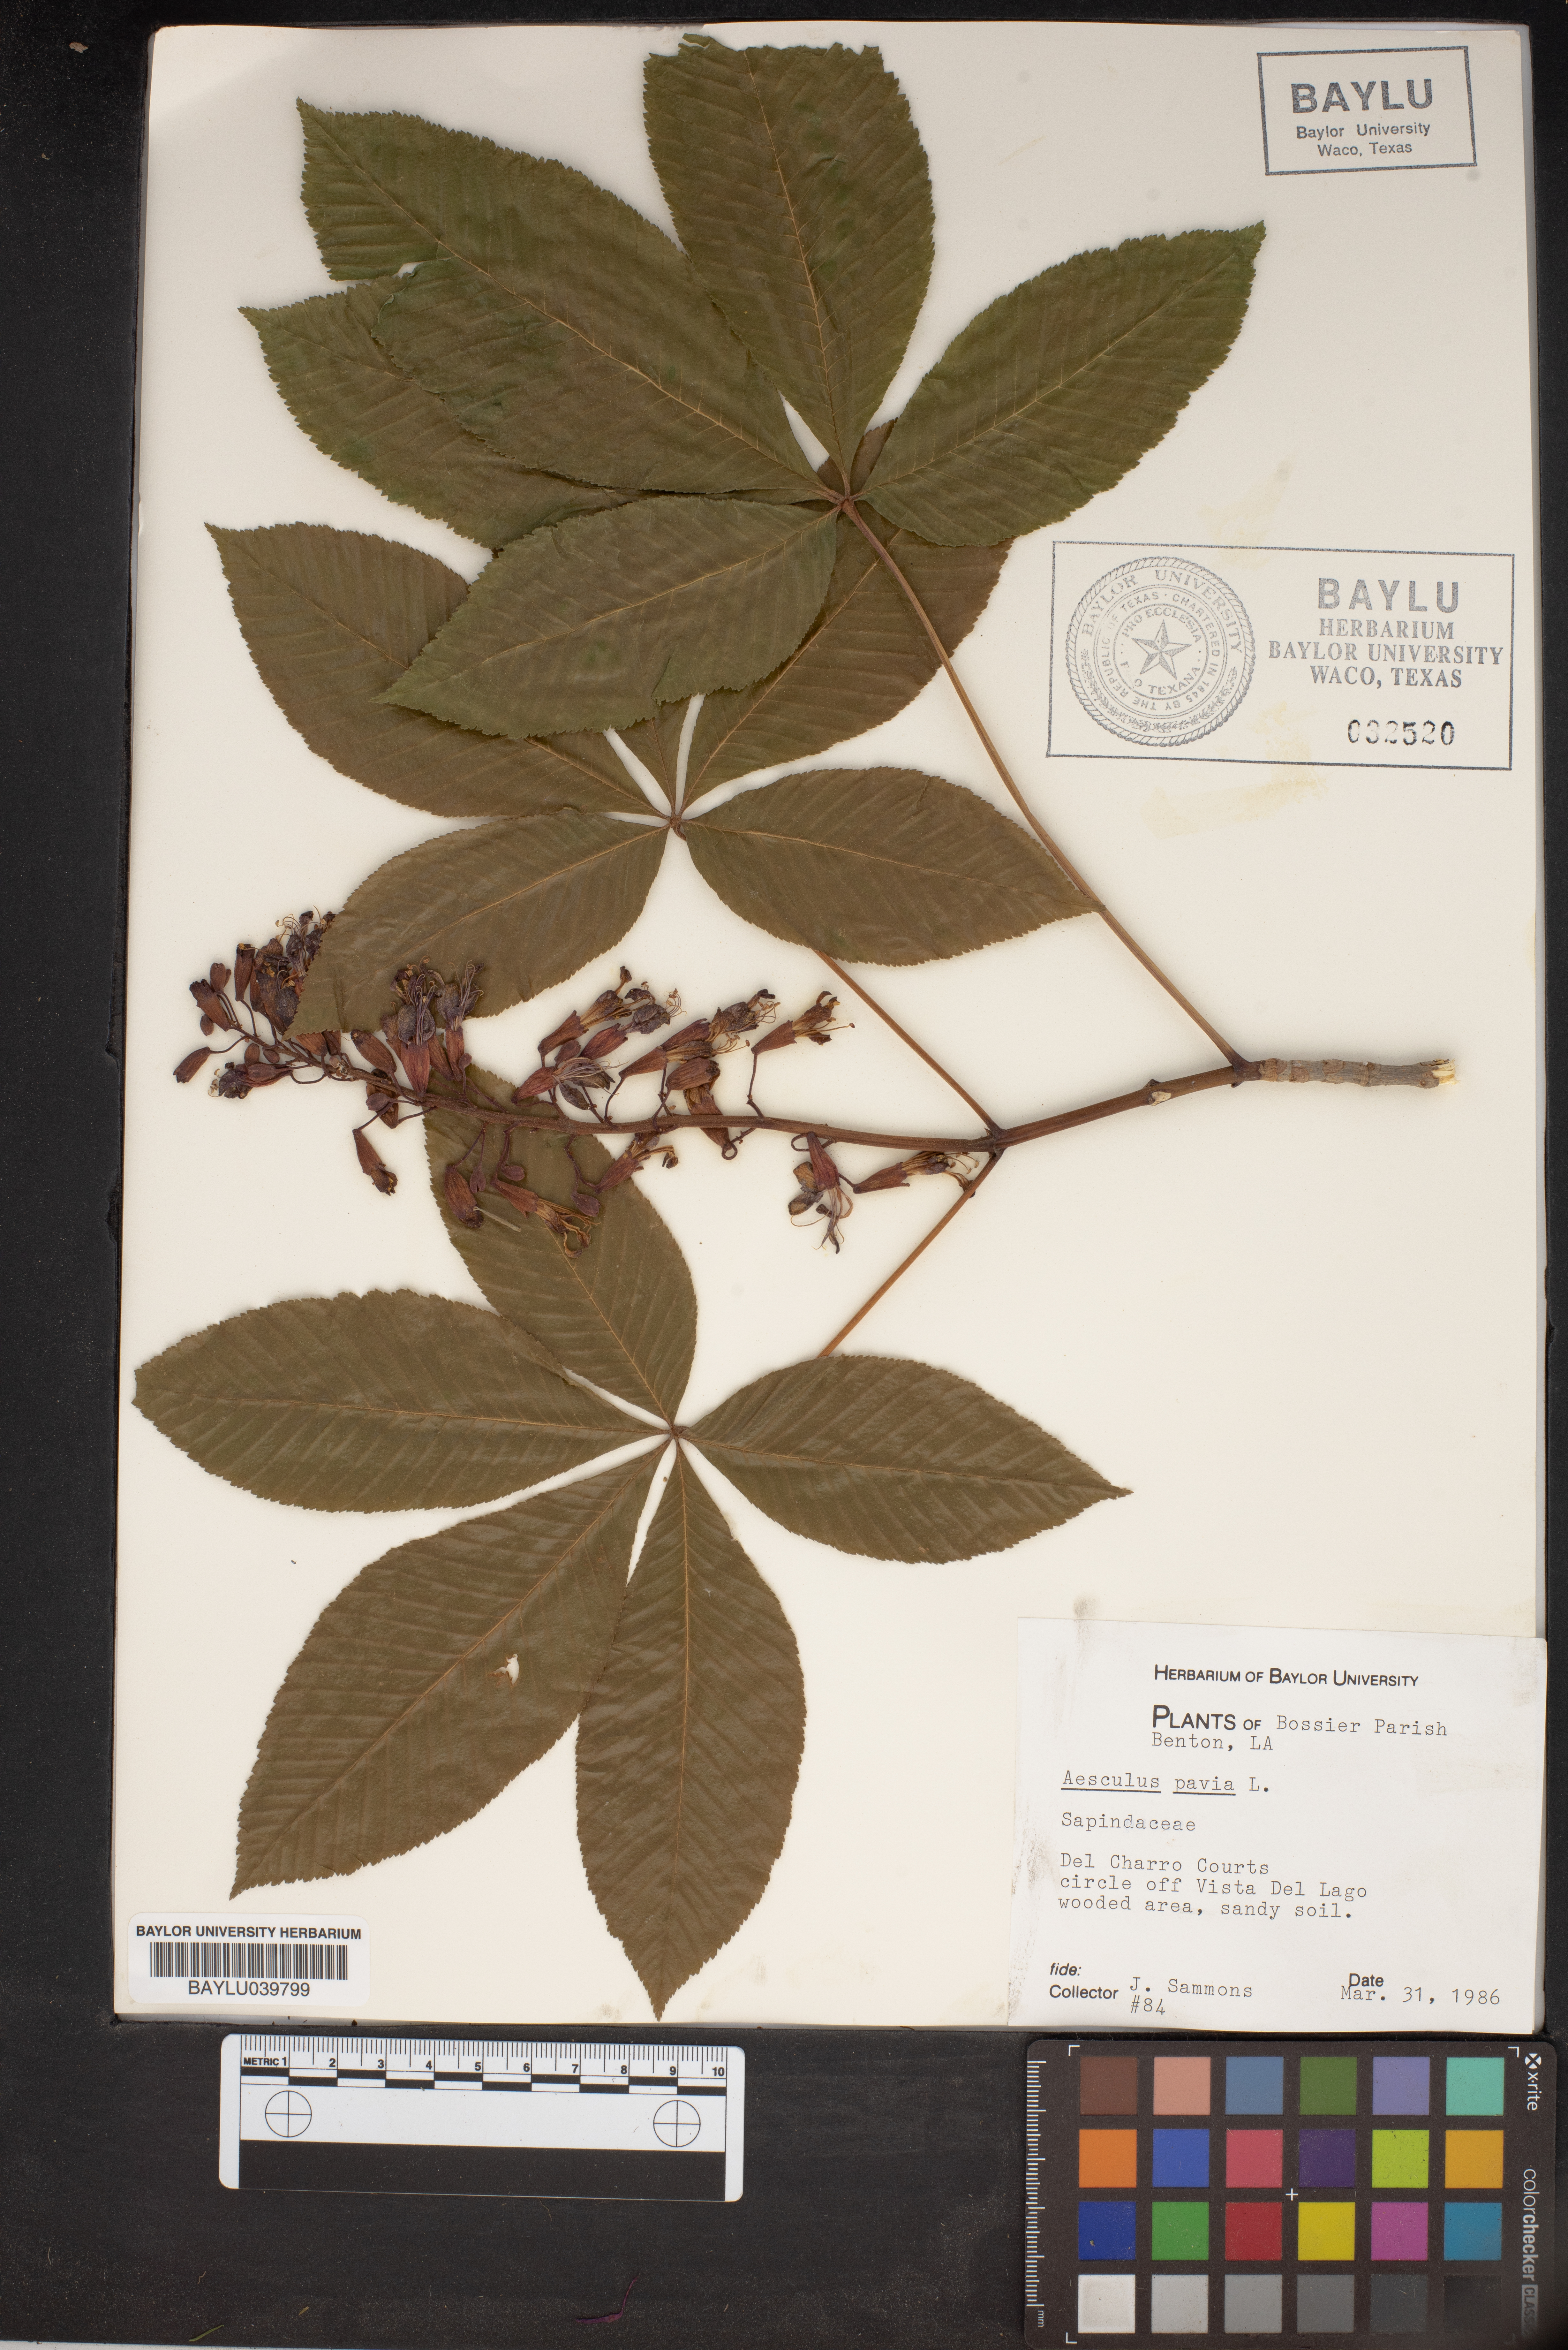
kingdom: Plantae
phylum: Tracheophyta
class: Magnoliopsida
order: Sapindales
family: Sapindaceae
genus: Aesculus
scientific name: Aesculus pavia
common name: Red buckeye
